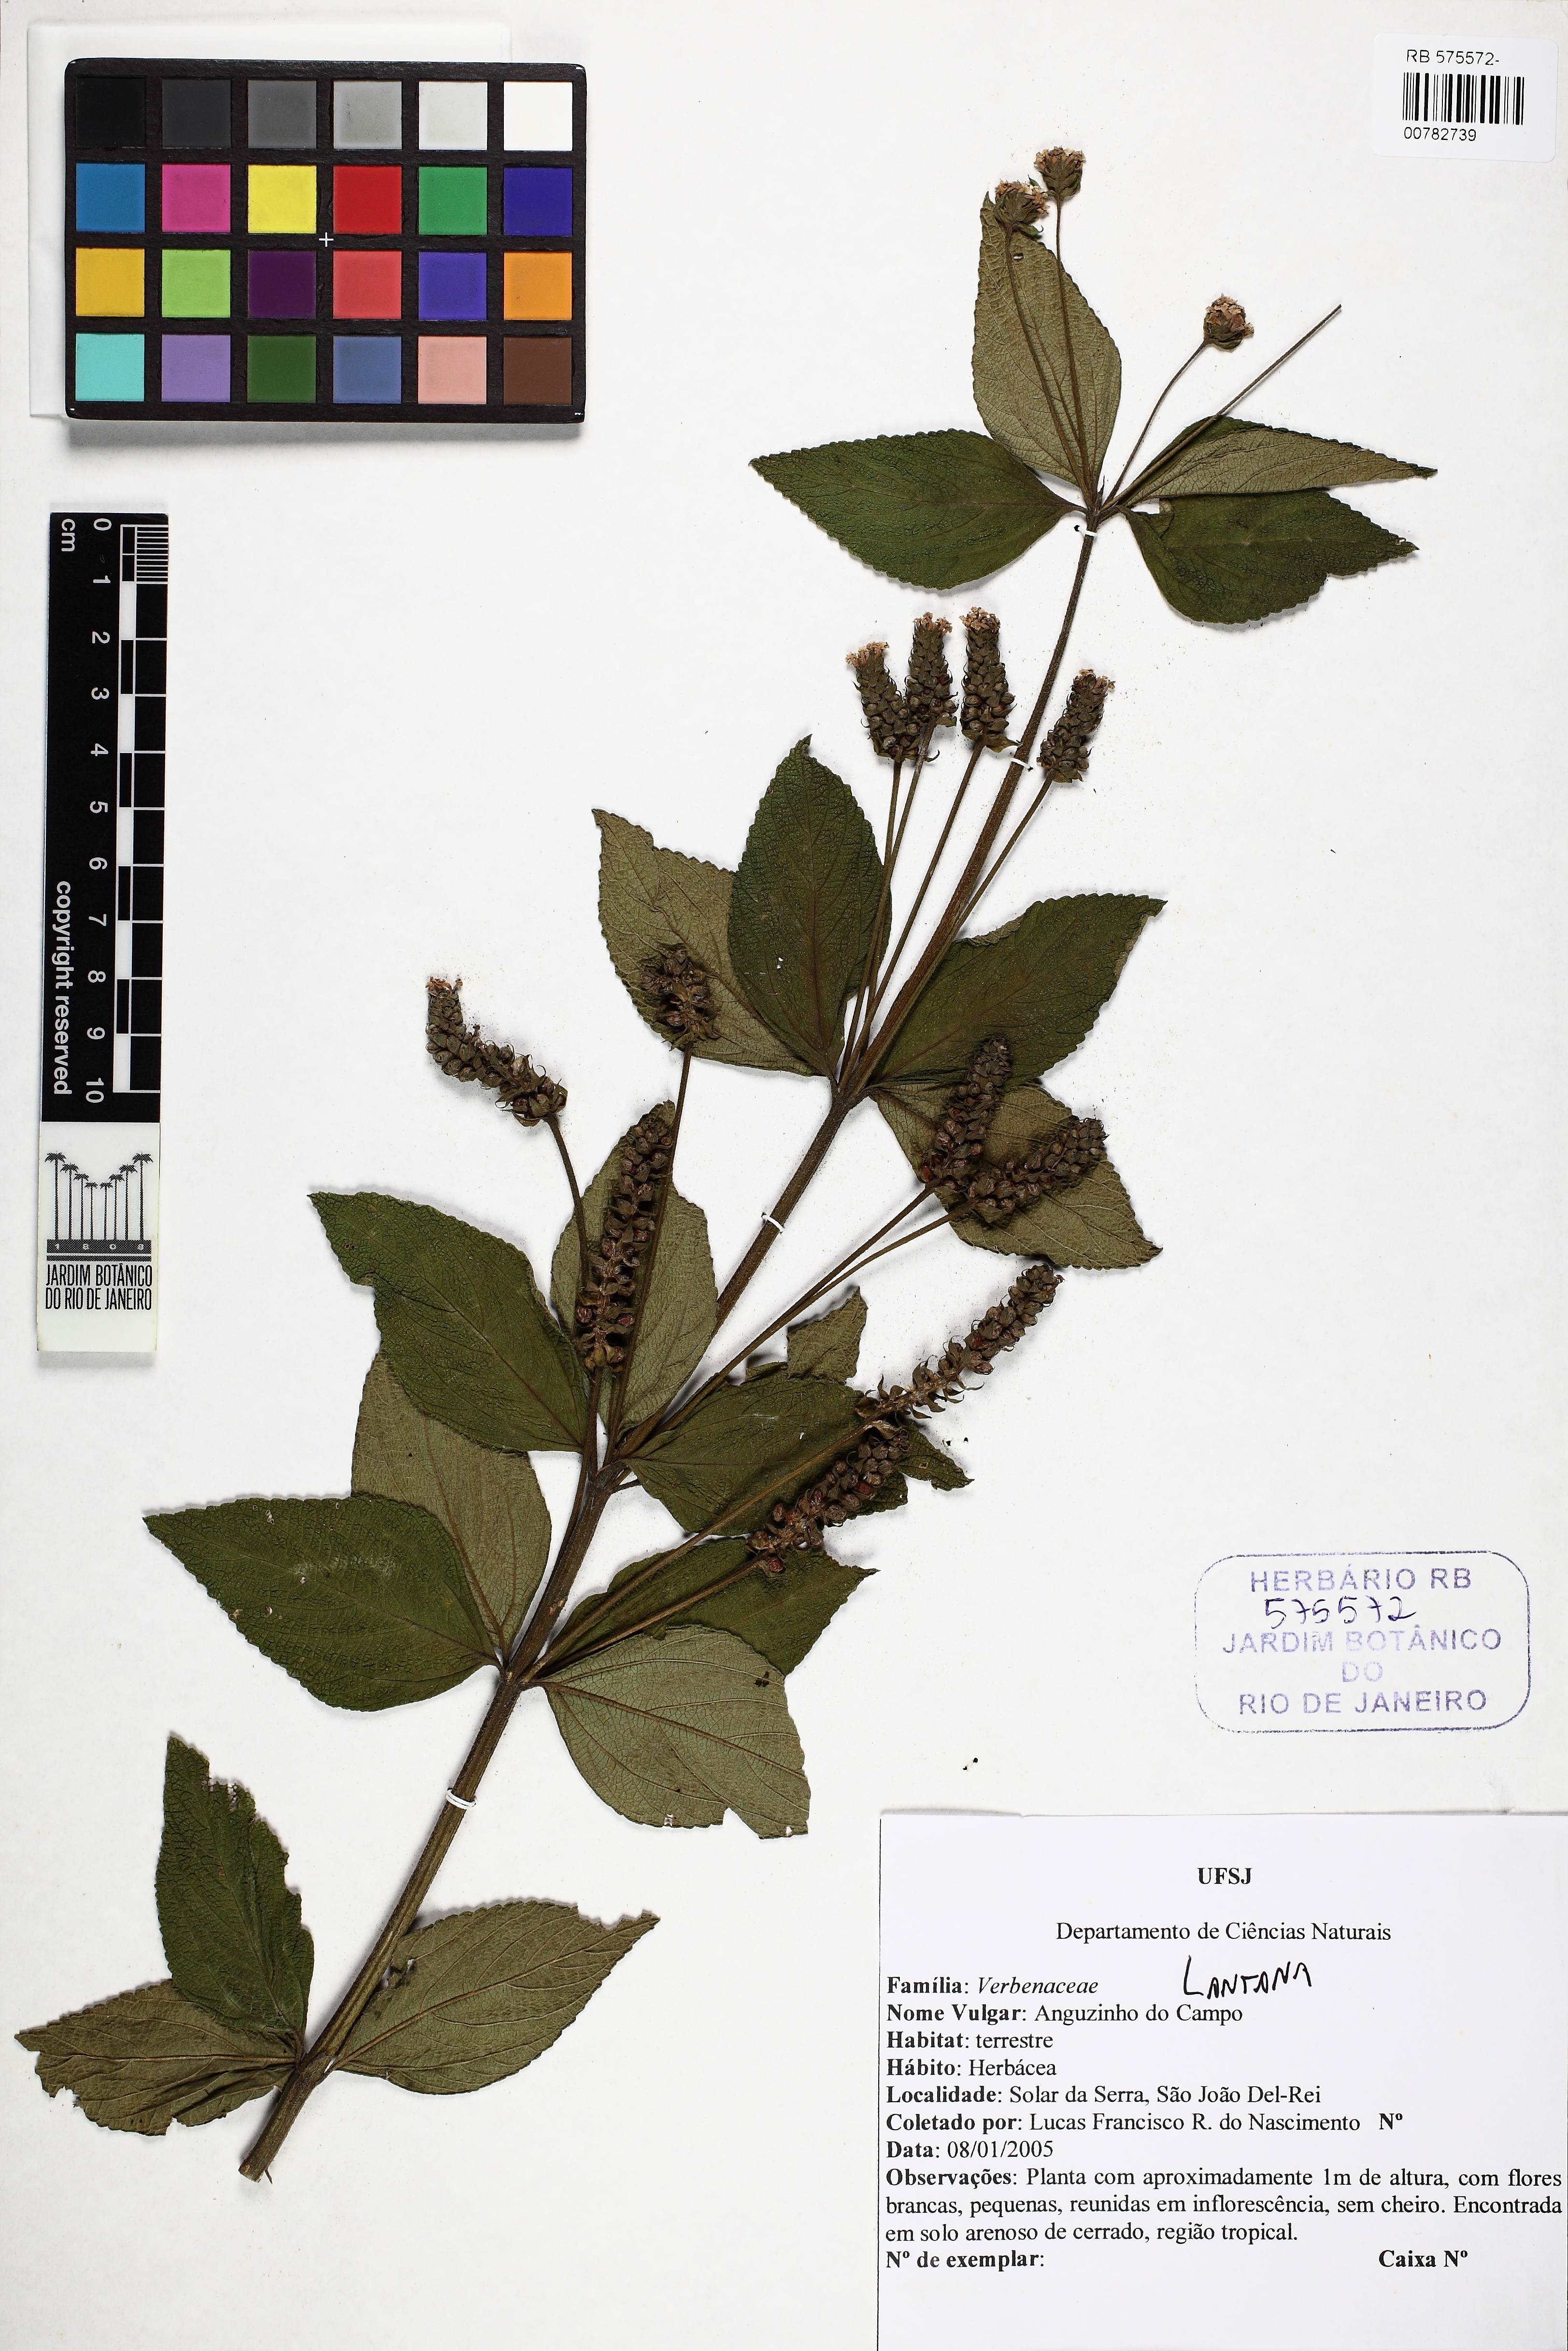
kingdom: Plantae
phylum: Tracheophyta
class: Magnoliopsida
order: Lamiales
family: Verbenaceae
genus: Lantana
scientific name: Lantana
